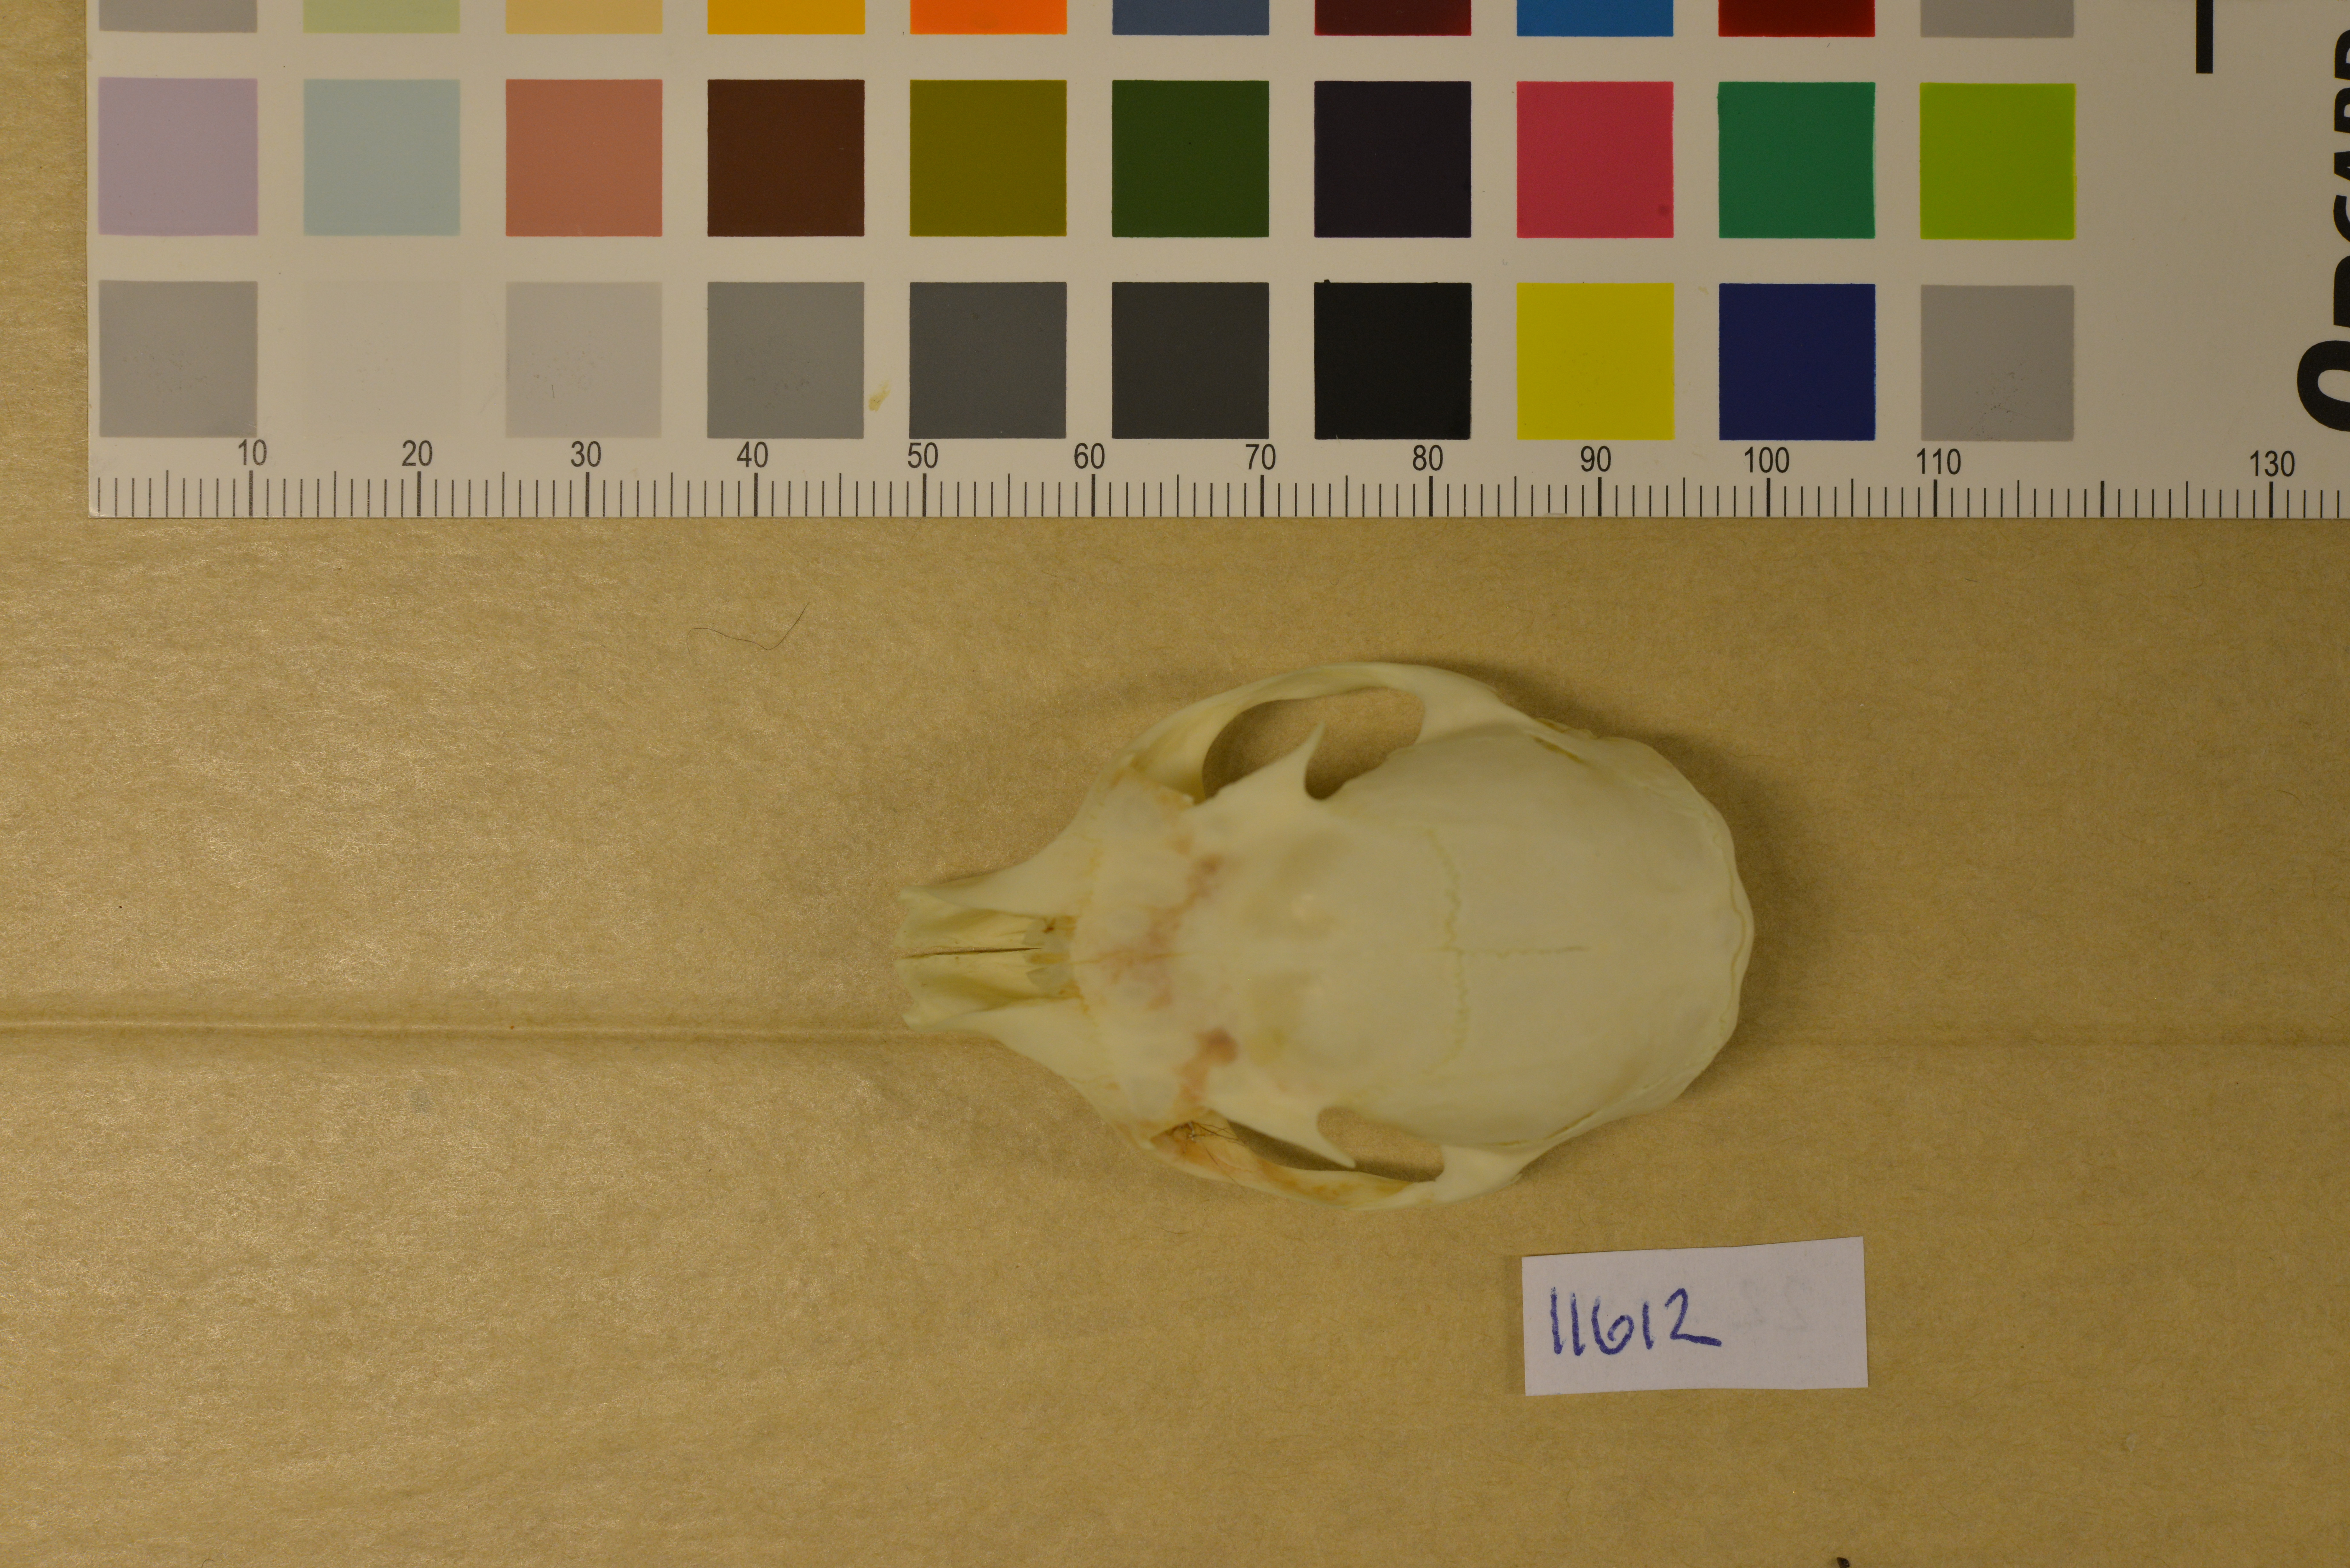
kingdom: Animalia
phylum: Chordata
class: Mammalia
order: Rodentia
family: Sciuridae
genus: Sciurus
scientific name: Sciurus vulgaris
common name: Eurasian red squirrel
